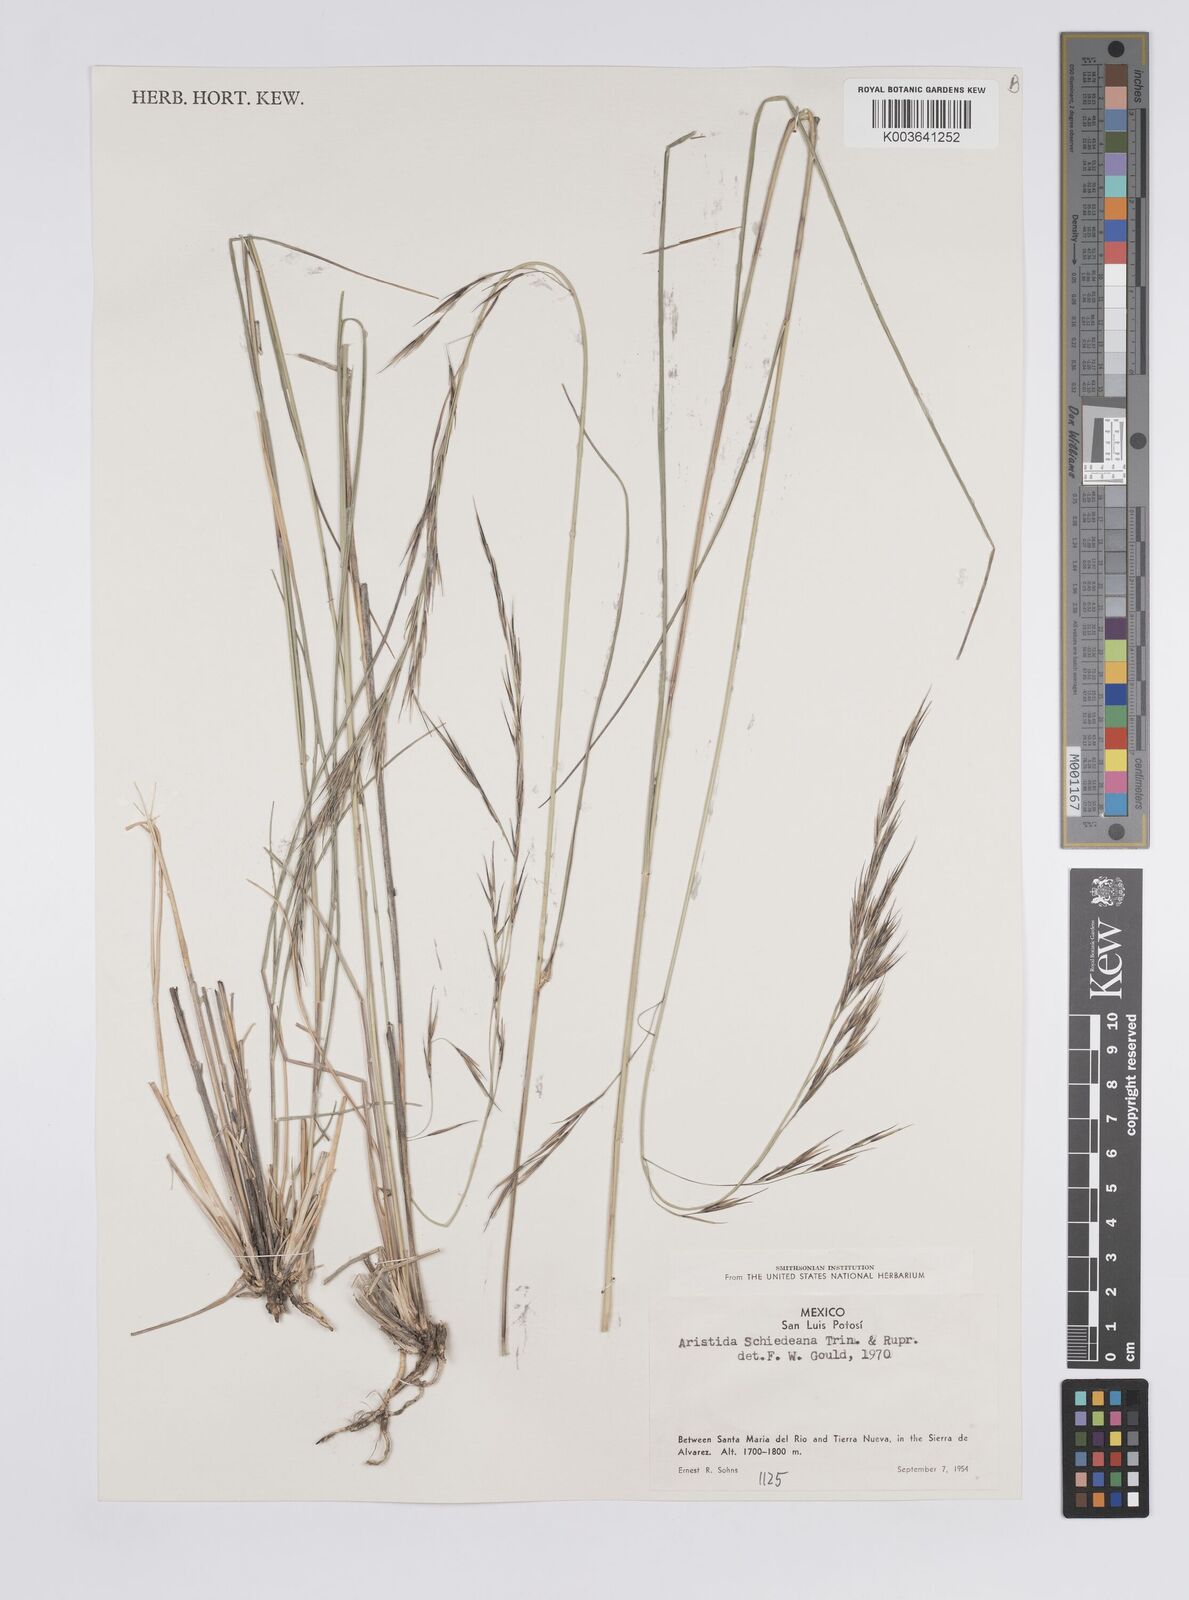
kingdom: Plantae
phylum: Tracheophyta
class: Liliopsida
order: Poales
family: Poaceae
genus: Aristida
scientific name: Aristida schiedeana
